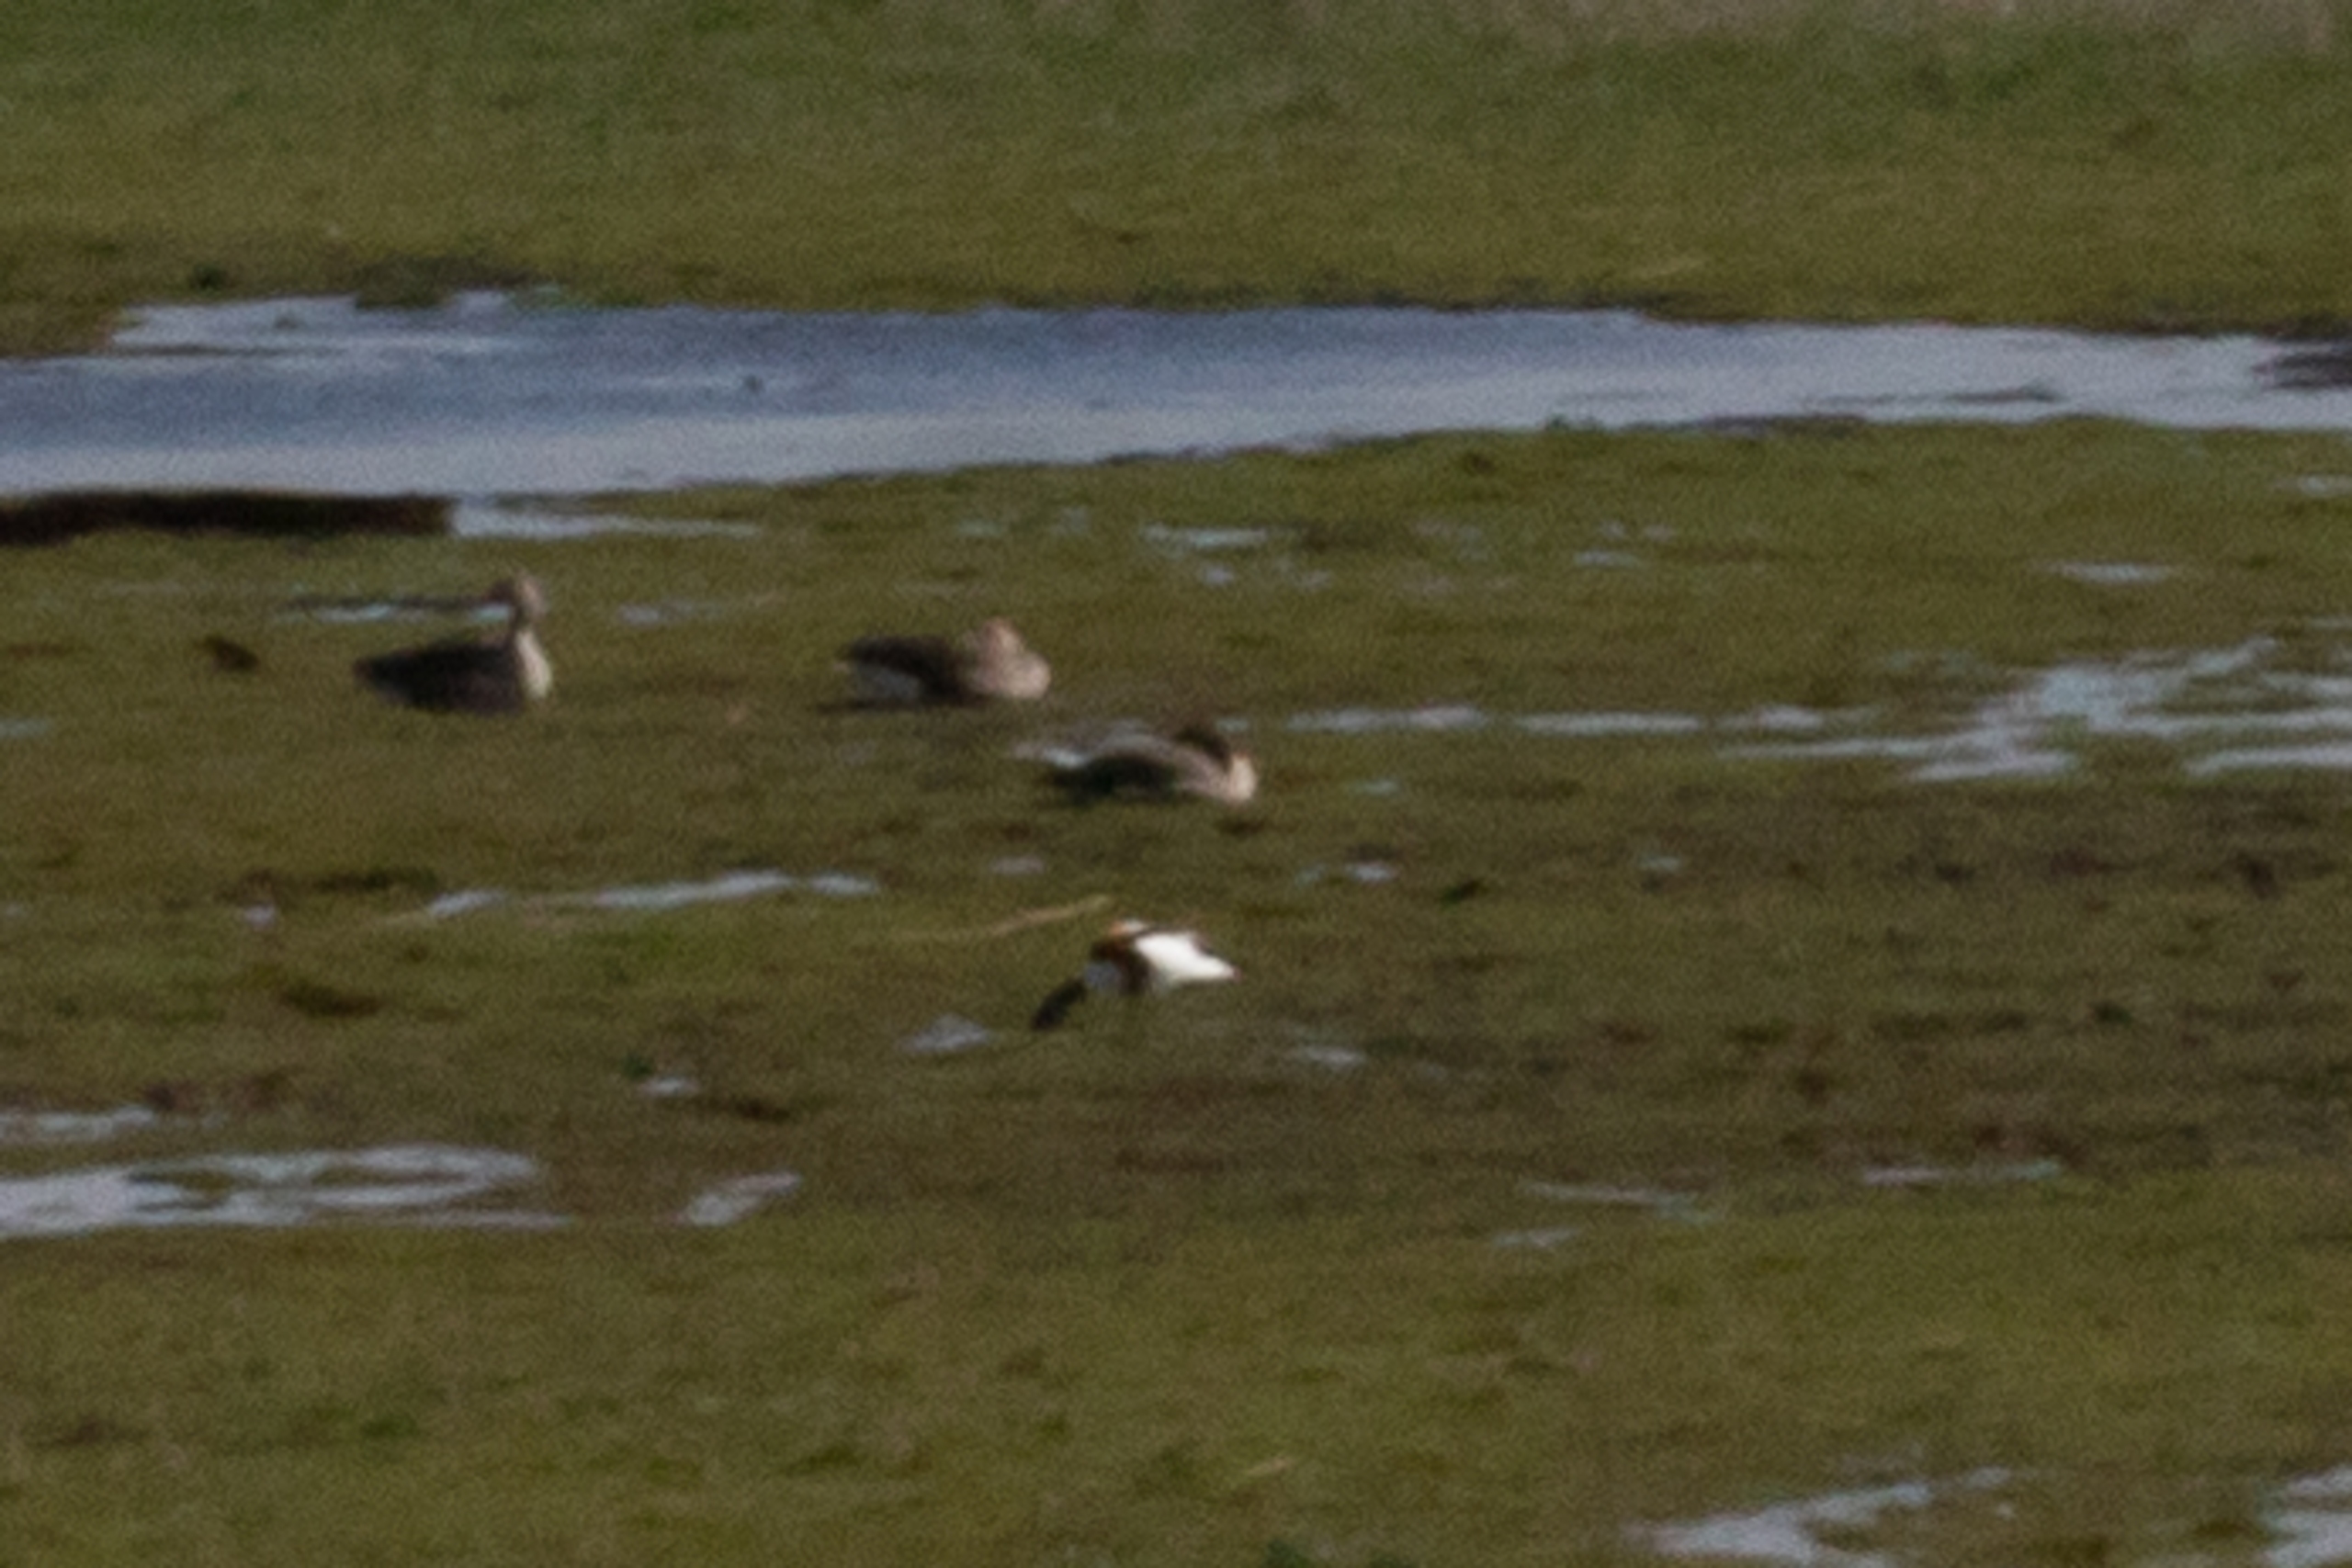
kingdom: Animalia
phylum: Chordata
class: Aves
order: Anseriformes
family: Anatidae
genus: Tadorna
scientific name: Tadorna tadorna
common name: Gravand
